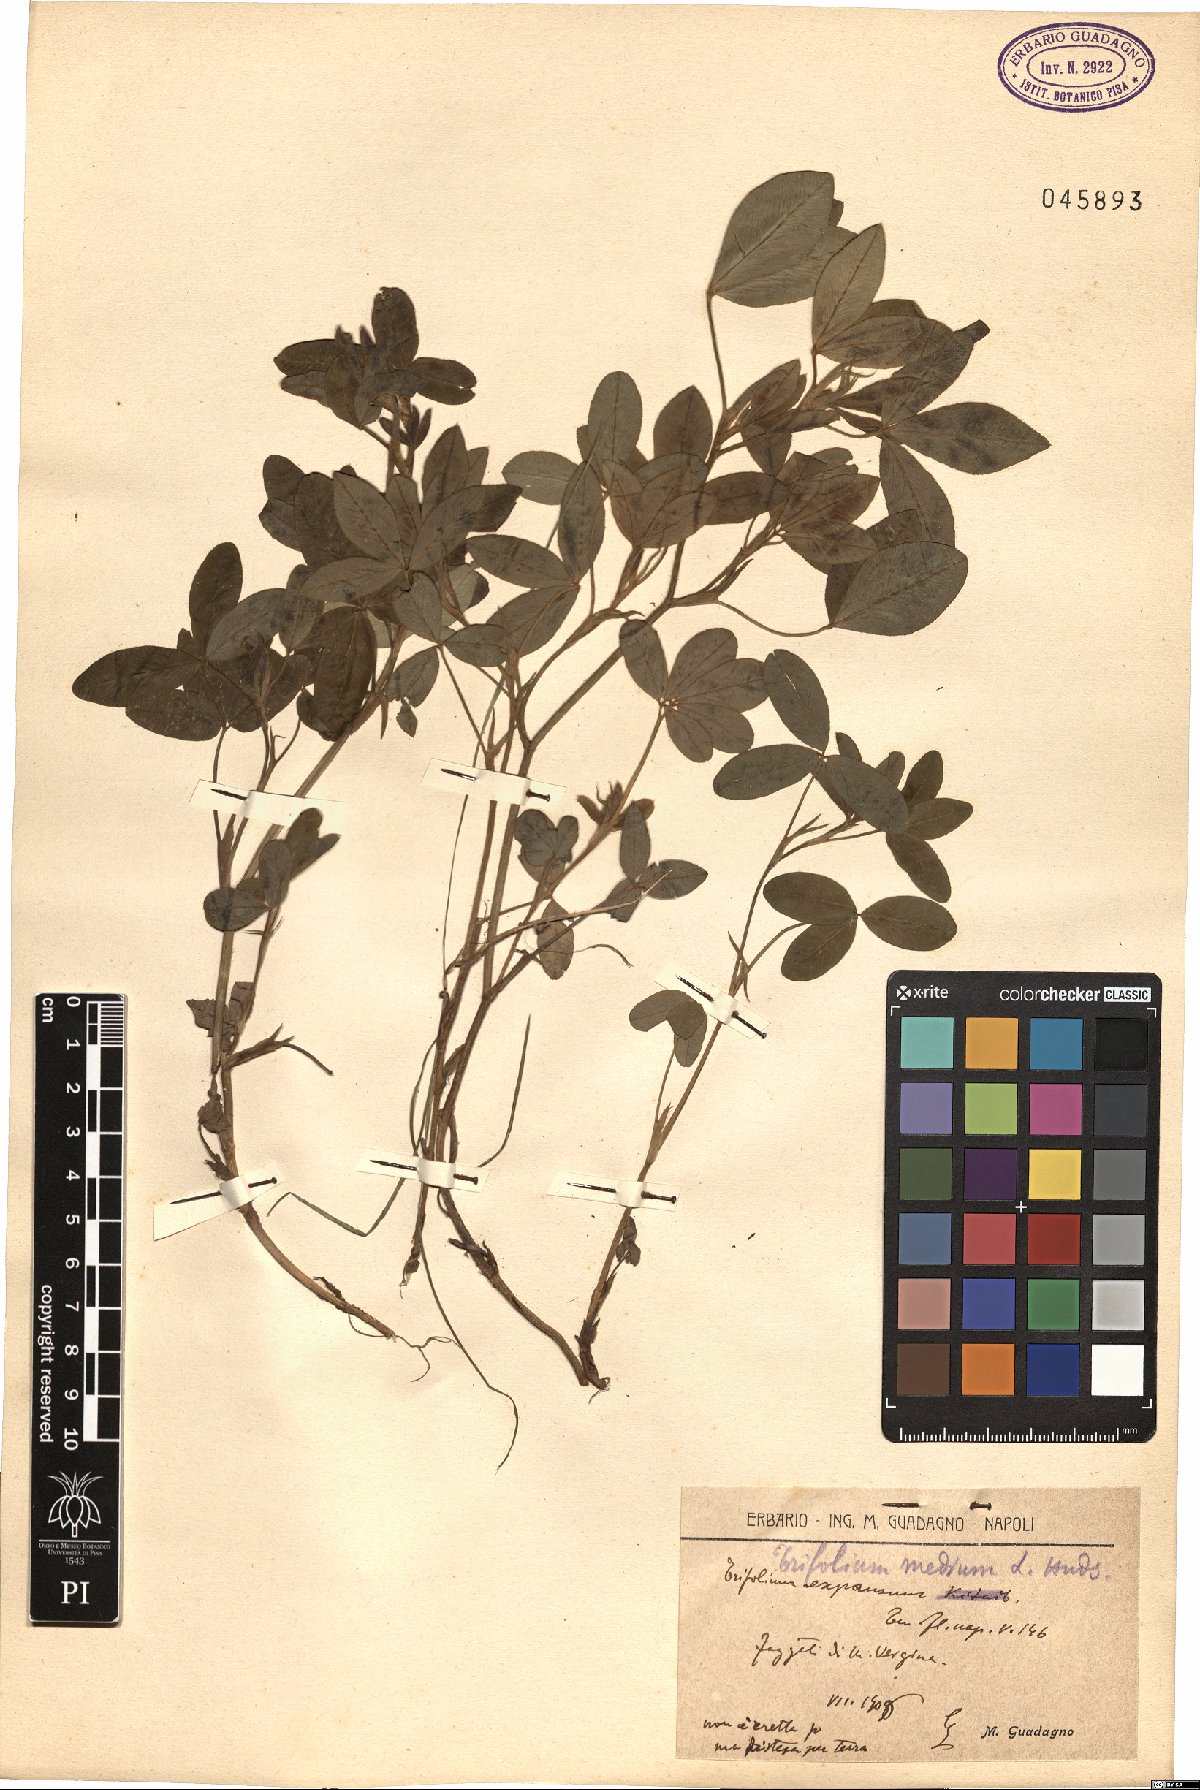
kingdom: Plantae
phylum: Tracheophyta
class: Magnoliopsida
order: Fabales
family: Fabaceae
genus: Trifolium
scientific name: Trifolium medium
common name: Zigzag clover
